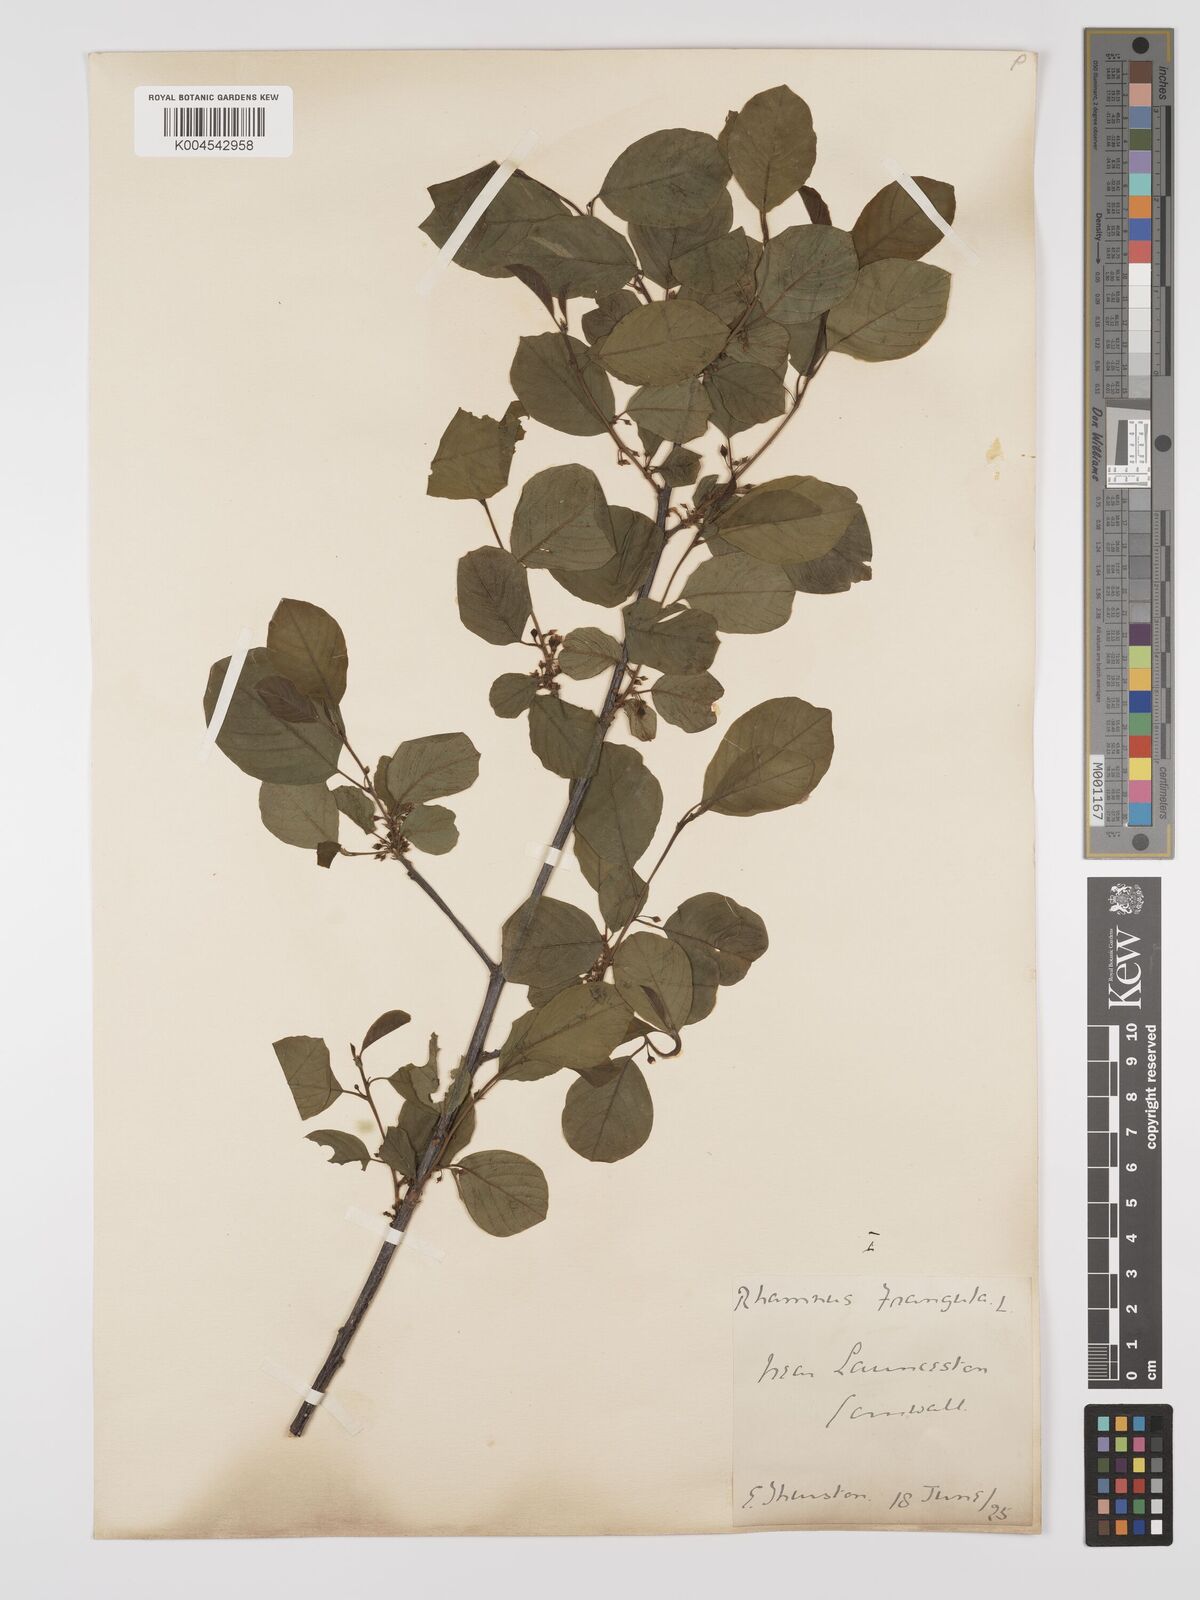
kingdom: Plantae
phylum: Tracheophyta
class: Magnoliopsida
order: Rosales
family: Rhamnaceae
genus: Frangula
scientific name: Frangula alnus
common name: Alder buckthorn
